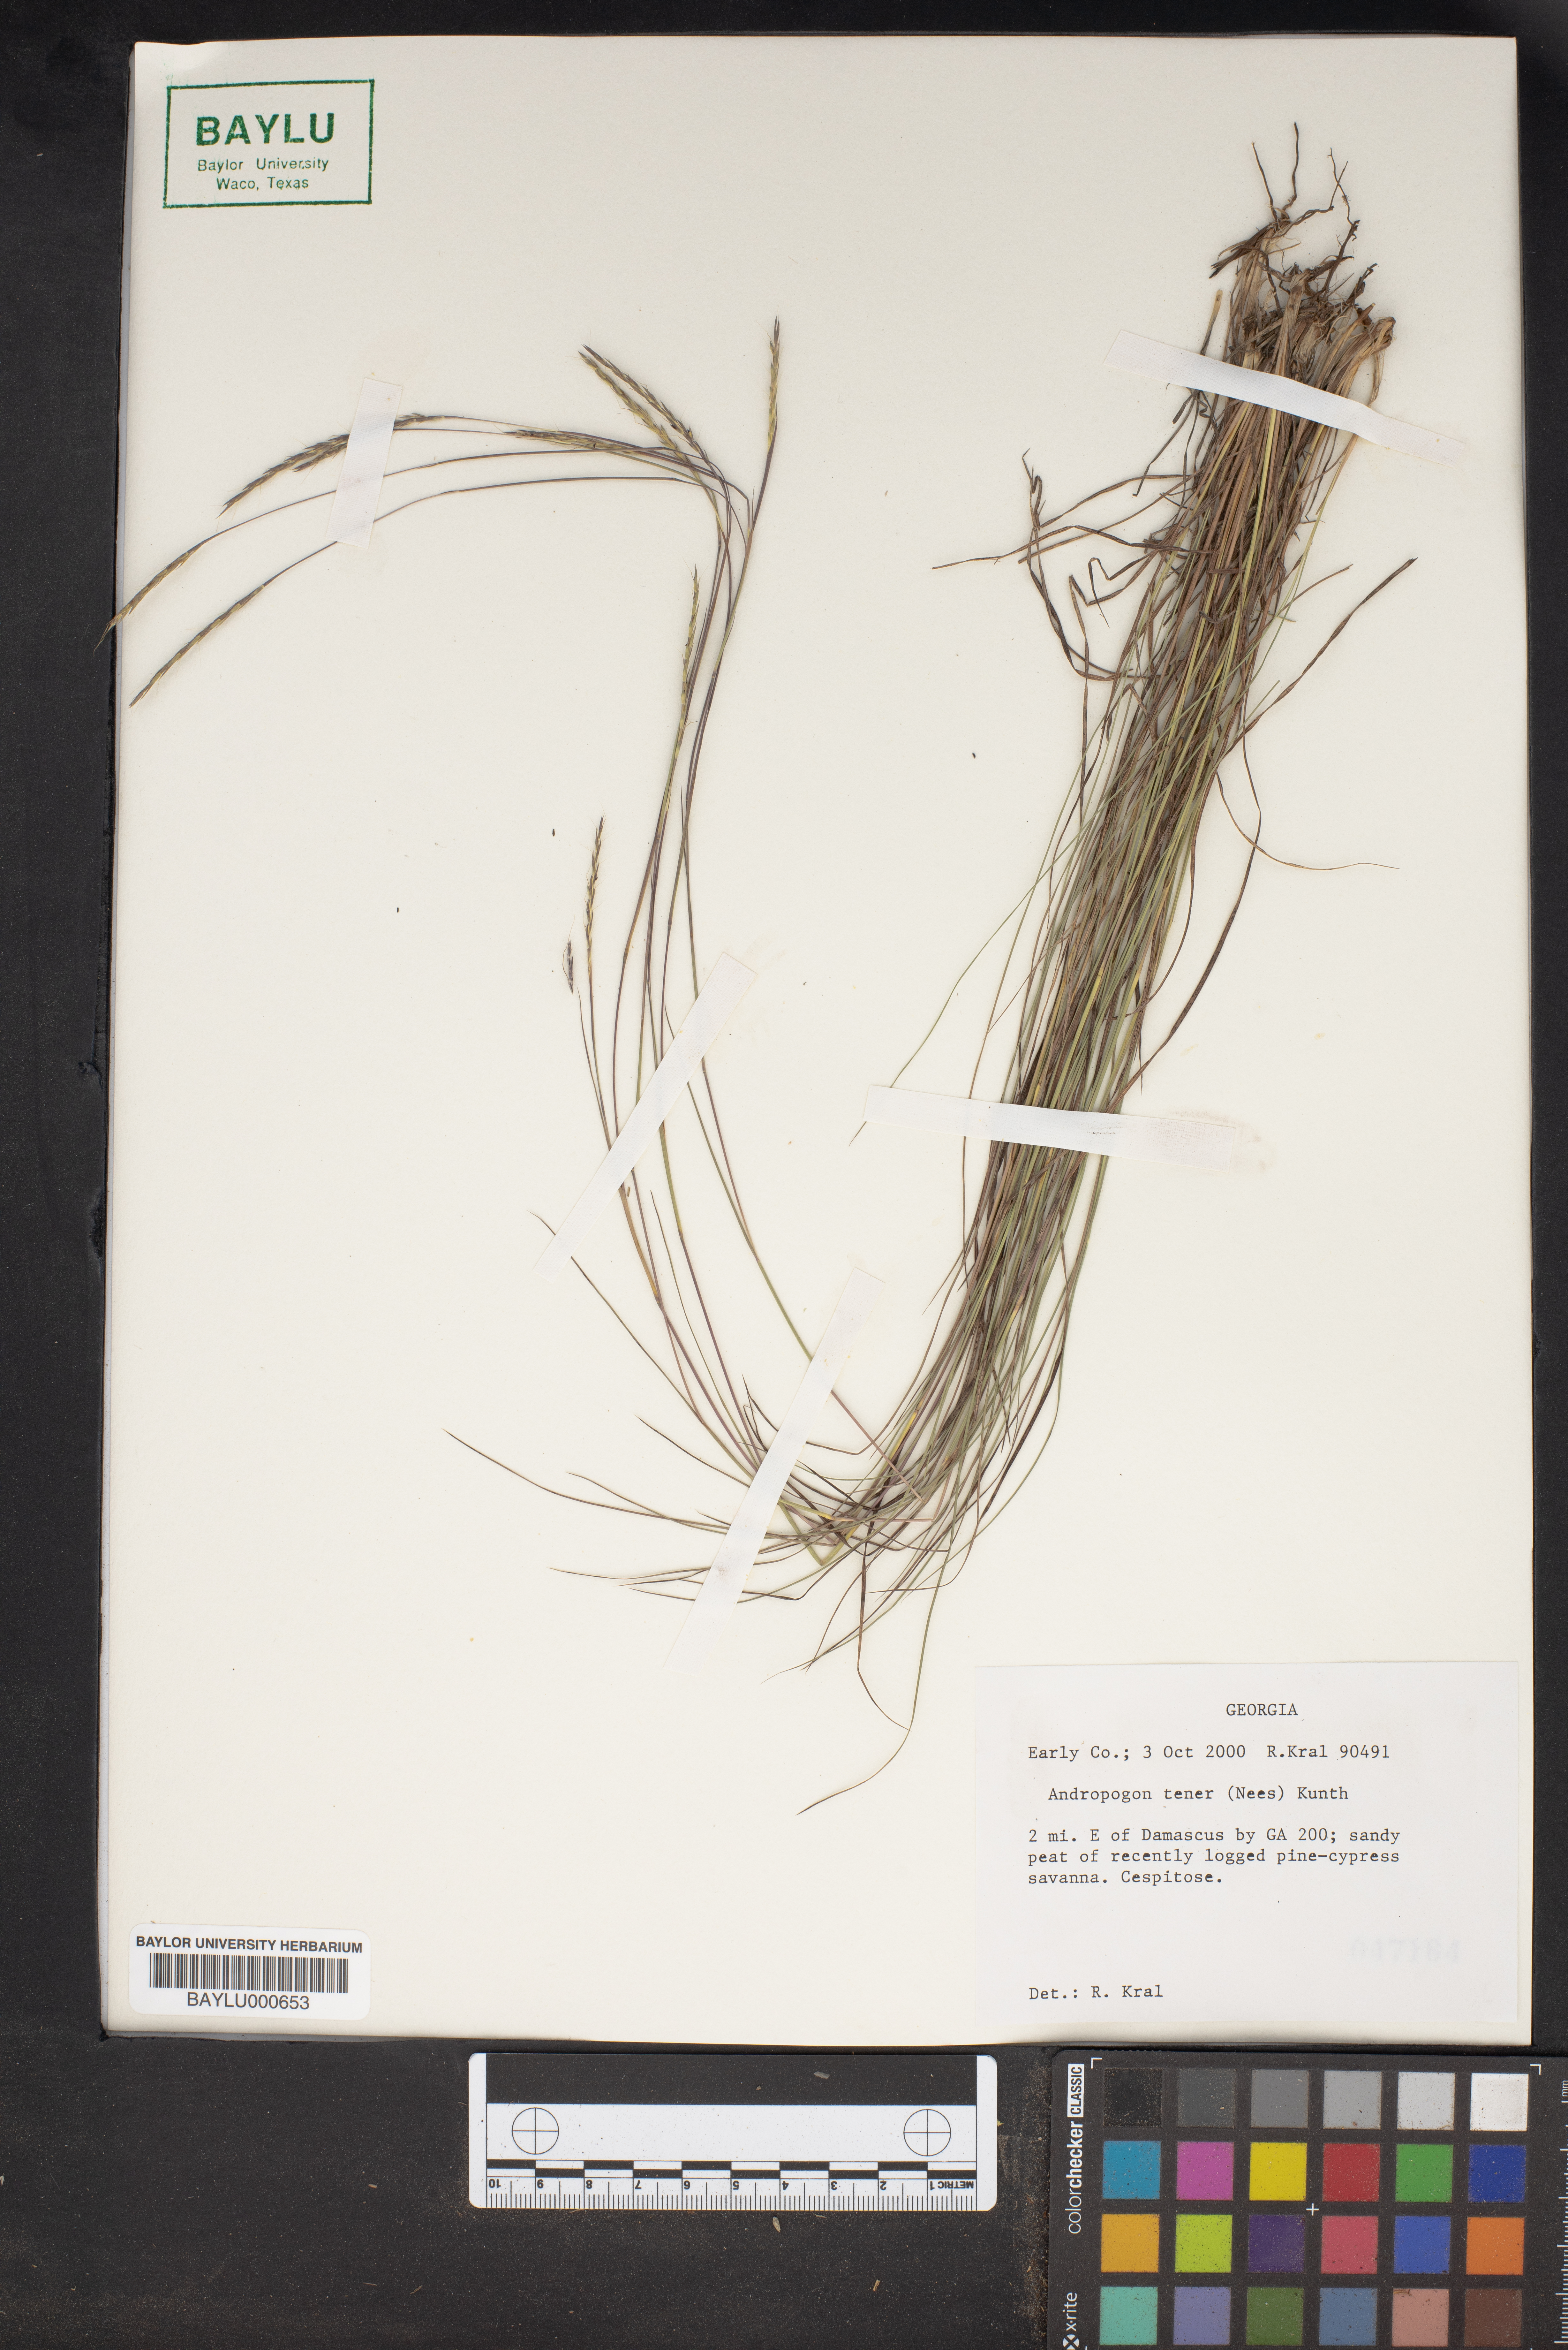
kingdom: Plantae
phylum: Tracheophyta
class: Liliopsida
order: Poales
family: Poaceae
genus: Andropogon
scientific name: Andropogon tener
